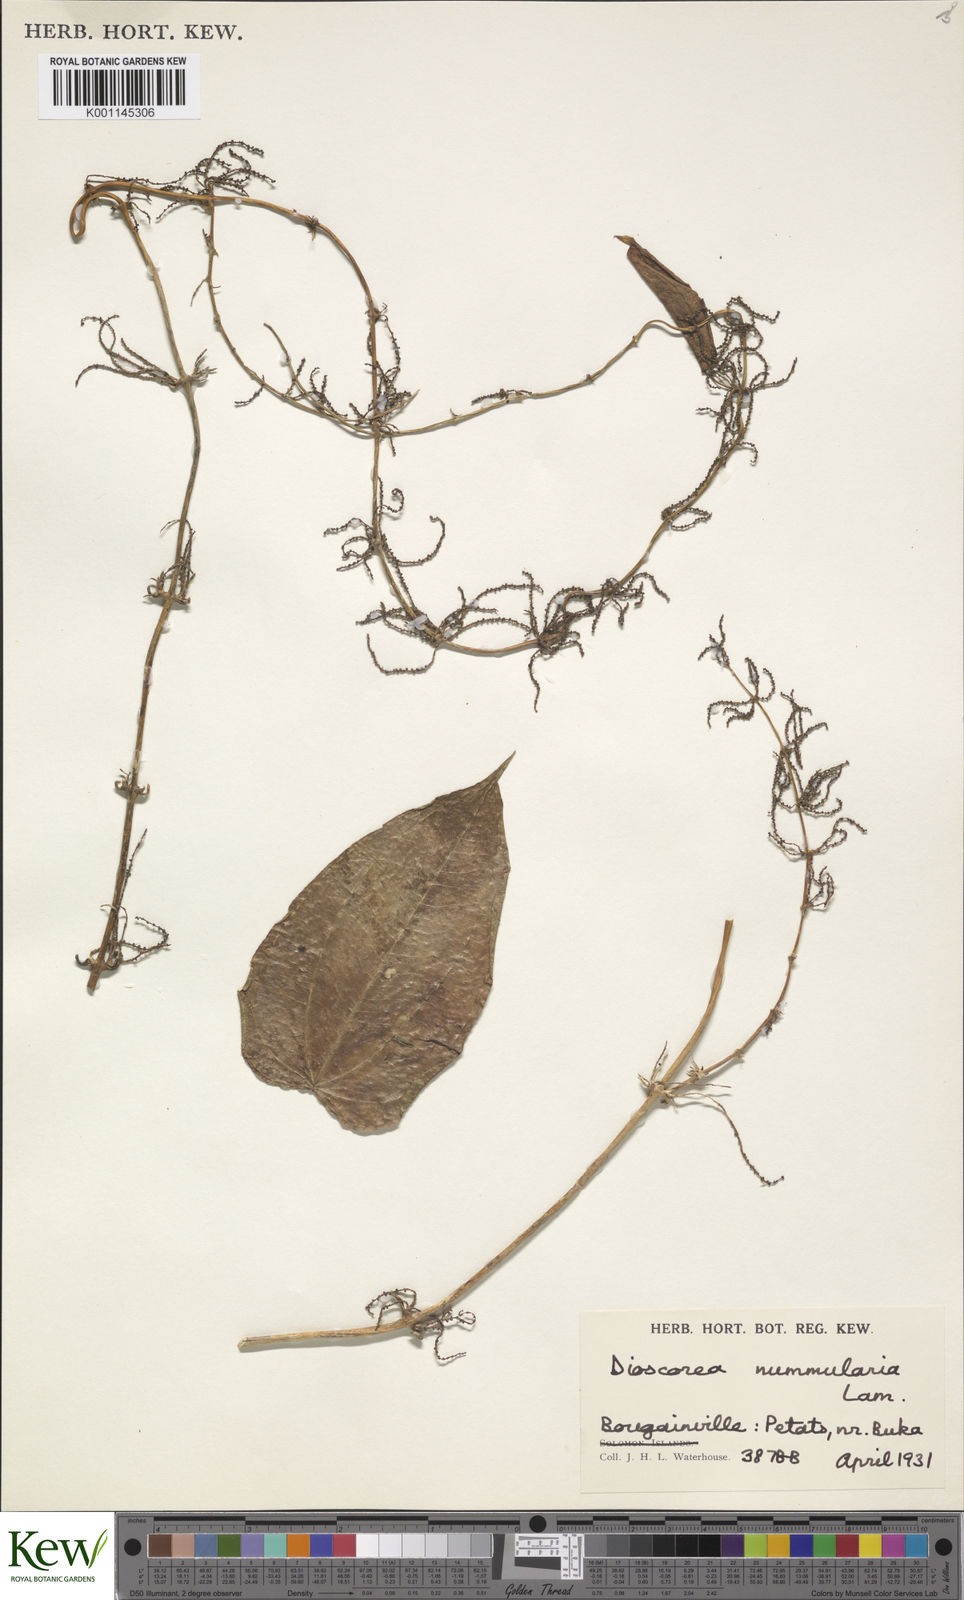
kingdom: Plantae
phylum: Tracheophyta
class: Liliopsida
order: Dioscoreales
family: Dioscoreaceae
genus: Dioscorea
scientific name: Dioscorea nummularia
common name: Pacific yam
